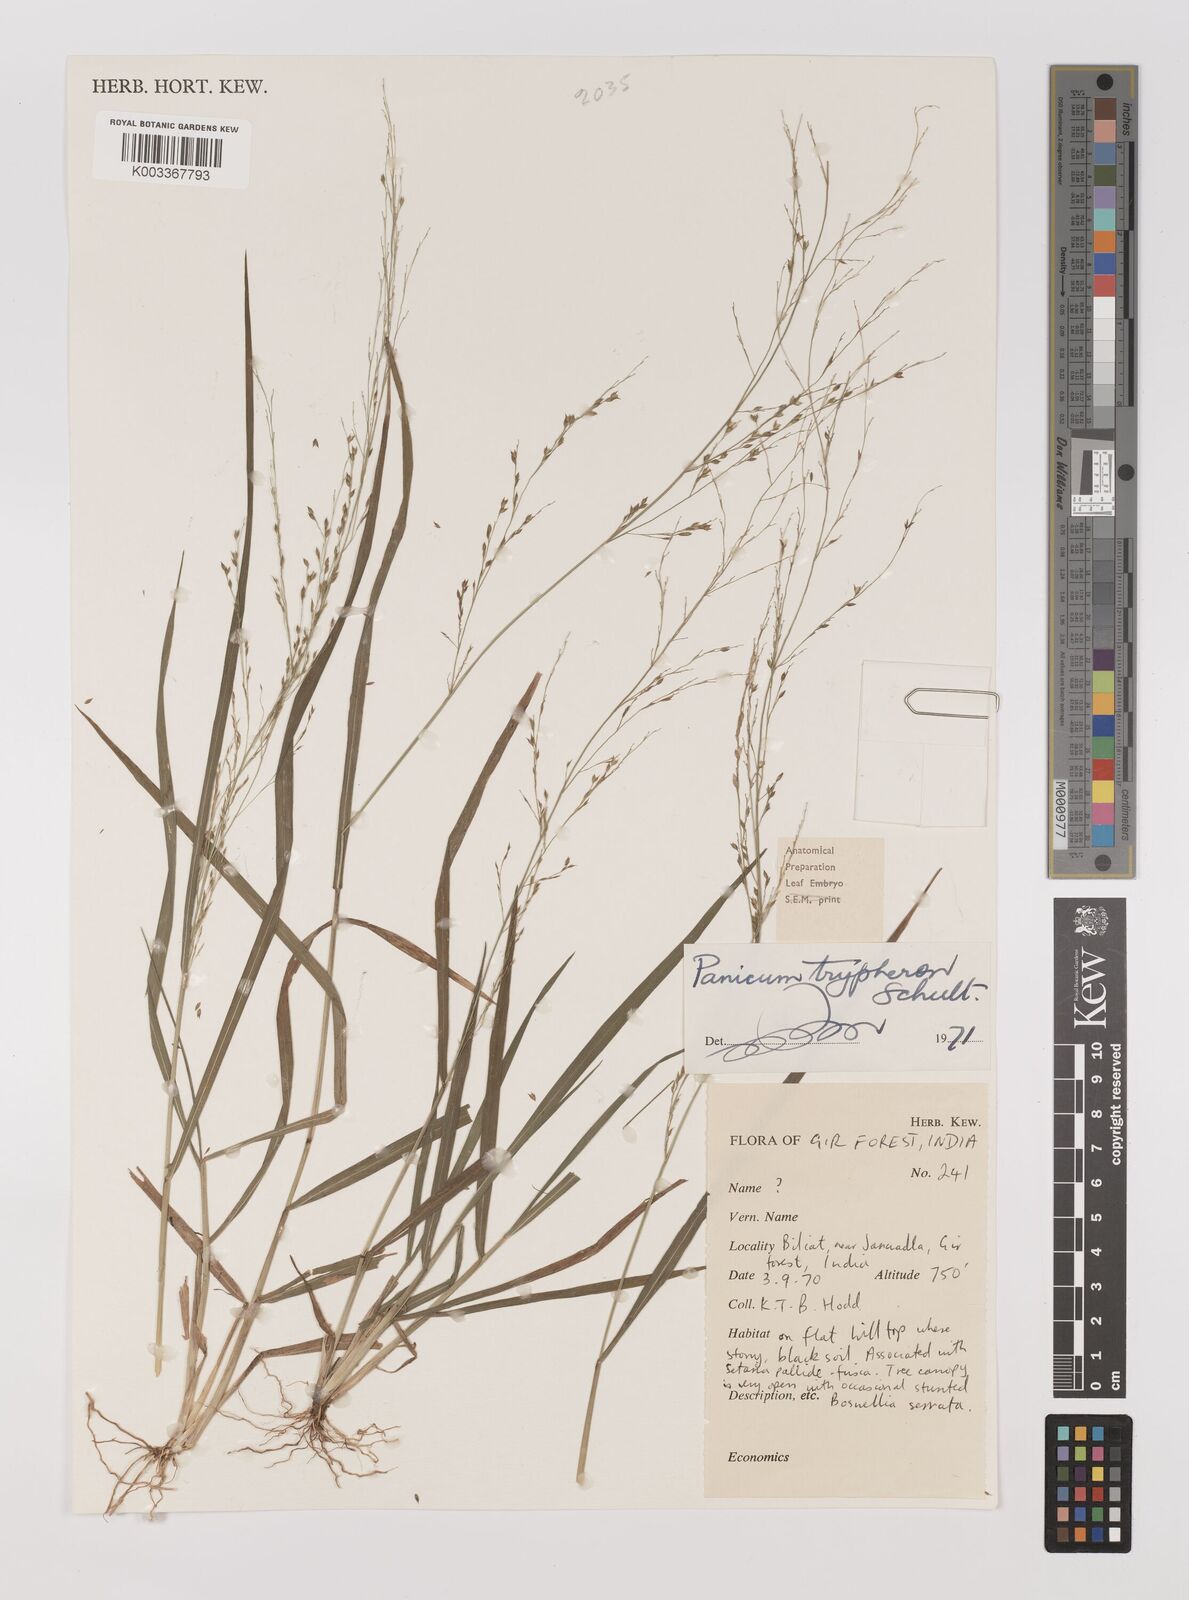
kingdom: Plantae
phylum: Tracheophyta
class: Liliopsida
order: Poales
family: Poaceae
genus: Panicum
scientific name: Panicum curviflorum
